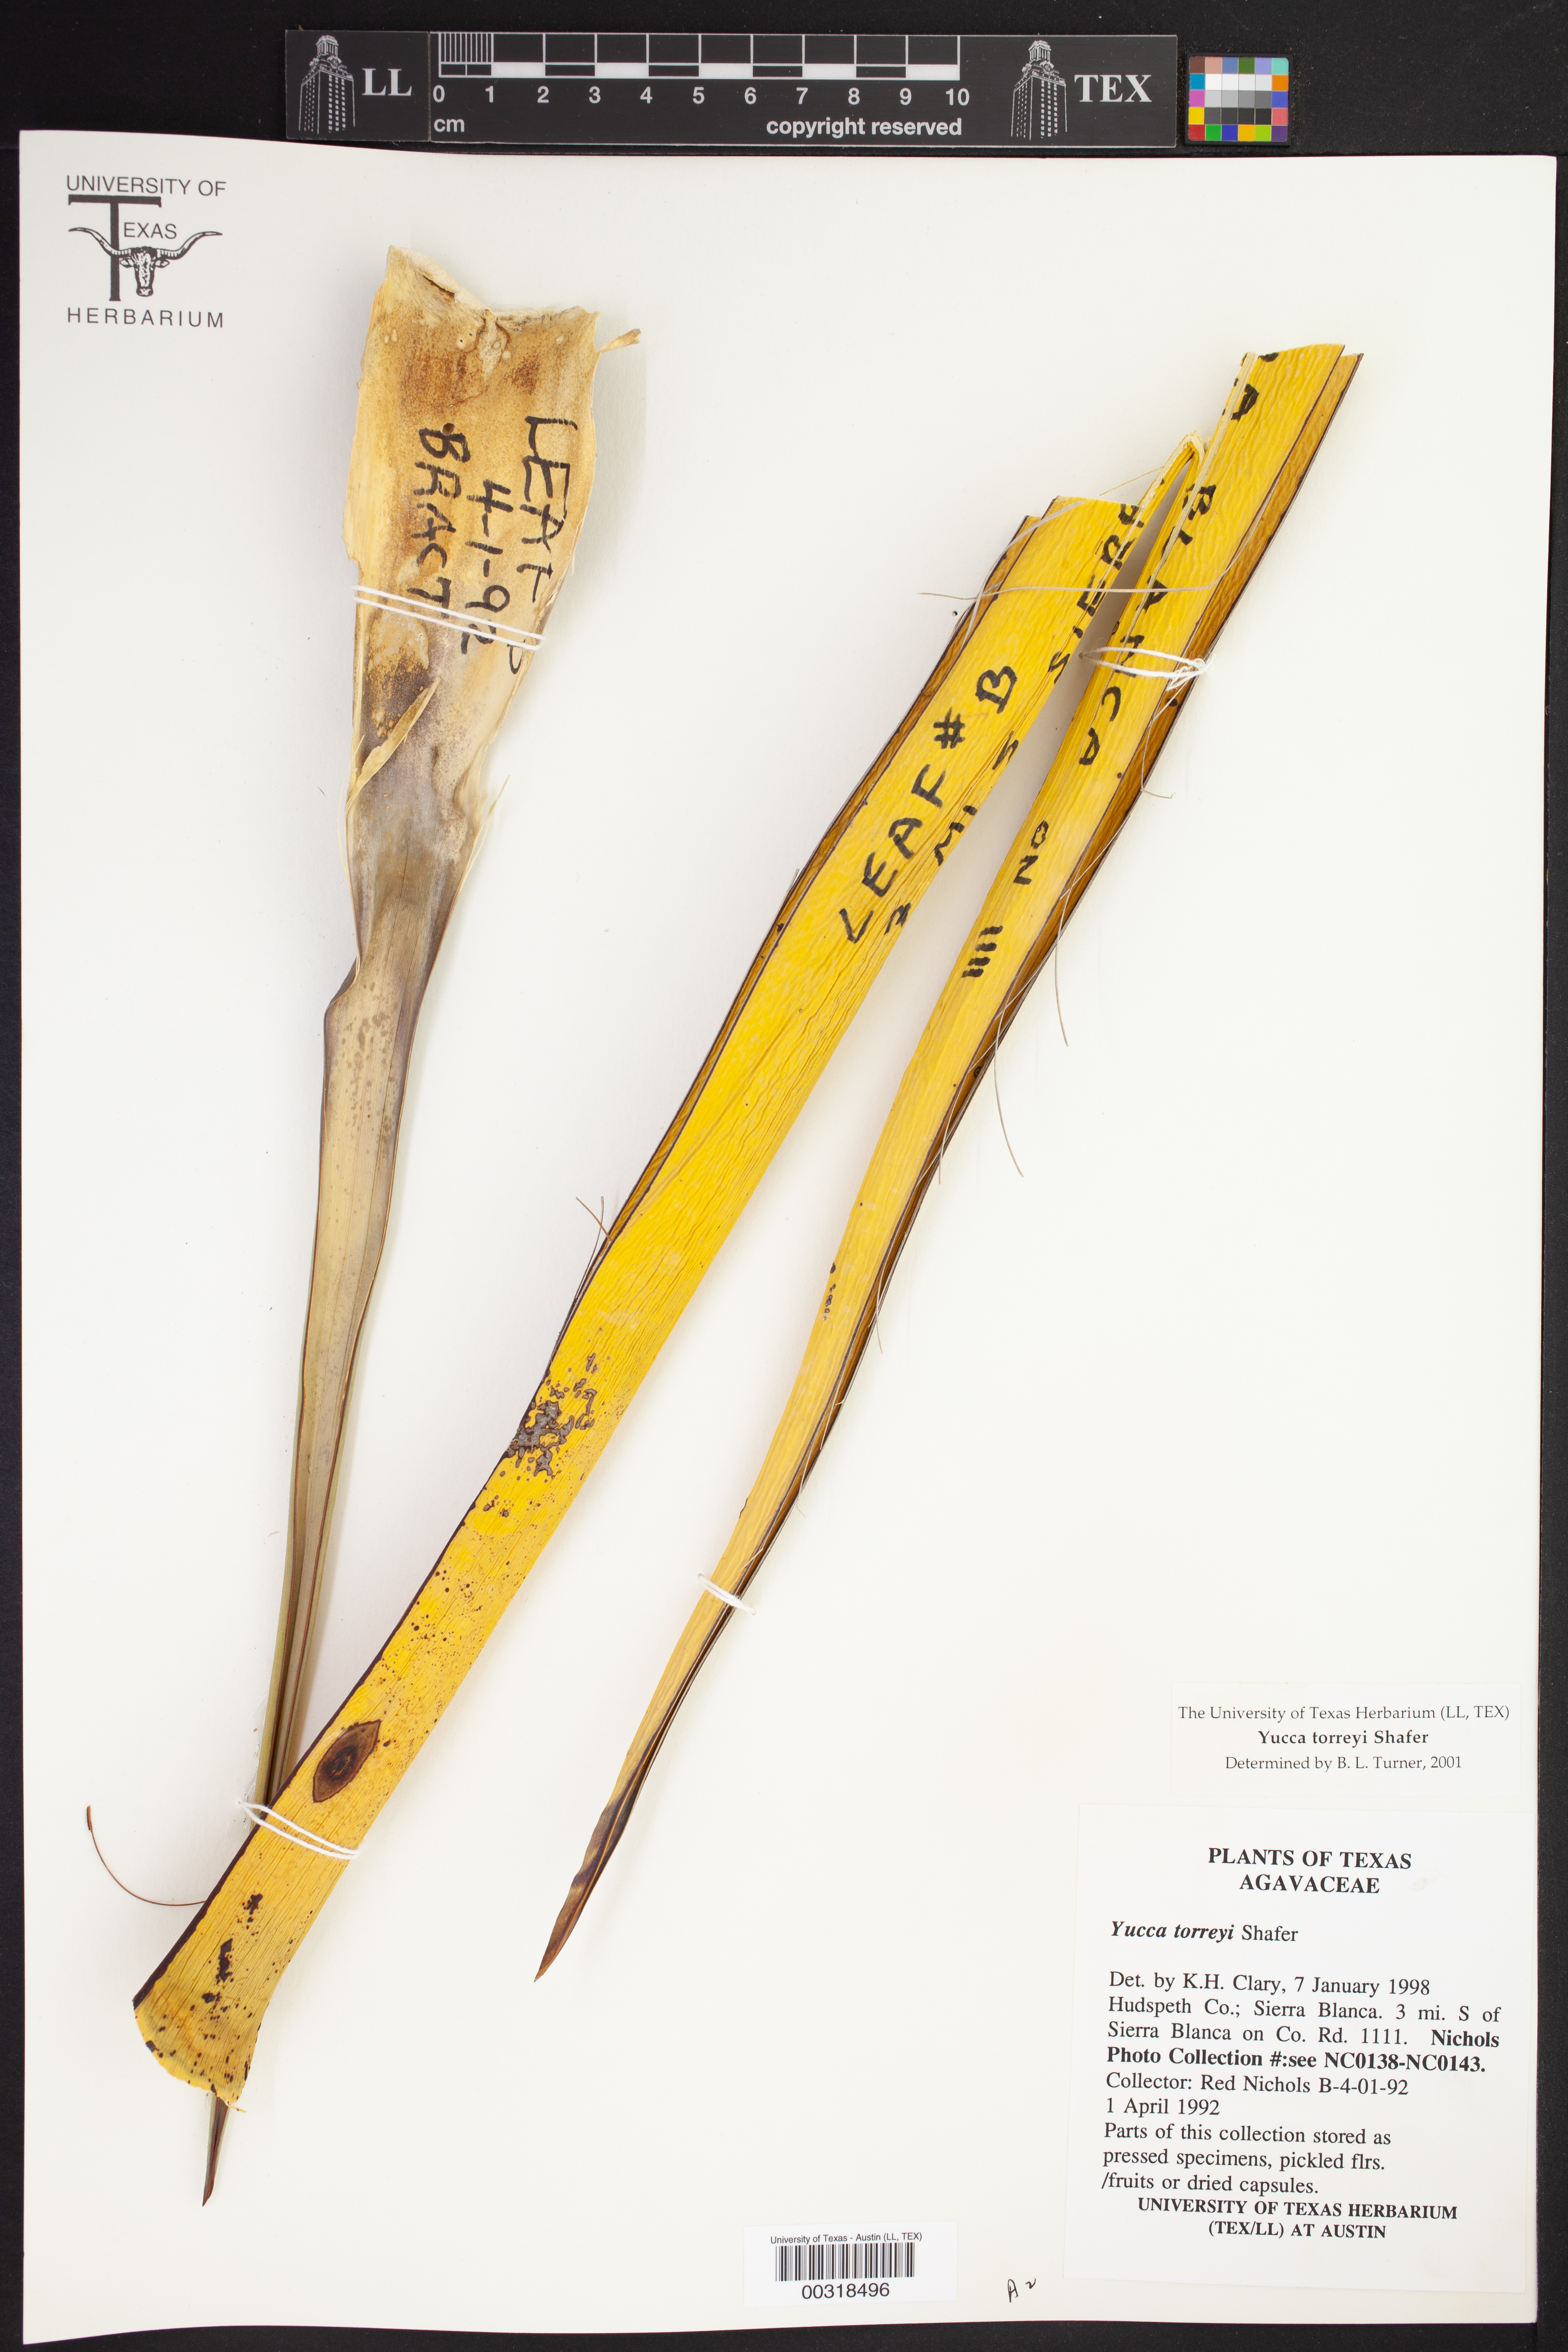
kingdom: Plantae
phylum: Tracheophyta
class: Liliopsida
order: Asparagales
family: Asparagaceae
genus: Yucca
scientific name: Yucca treculiana
